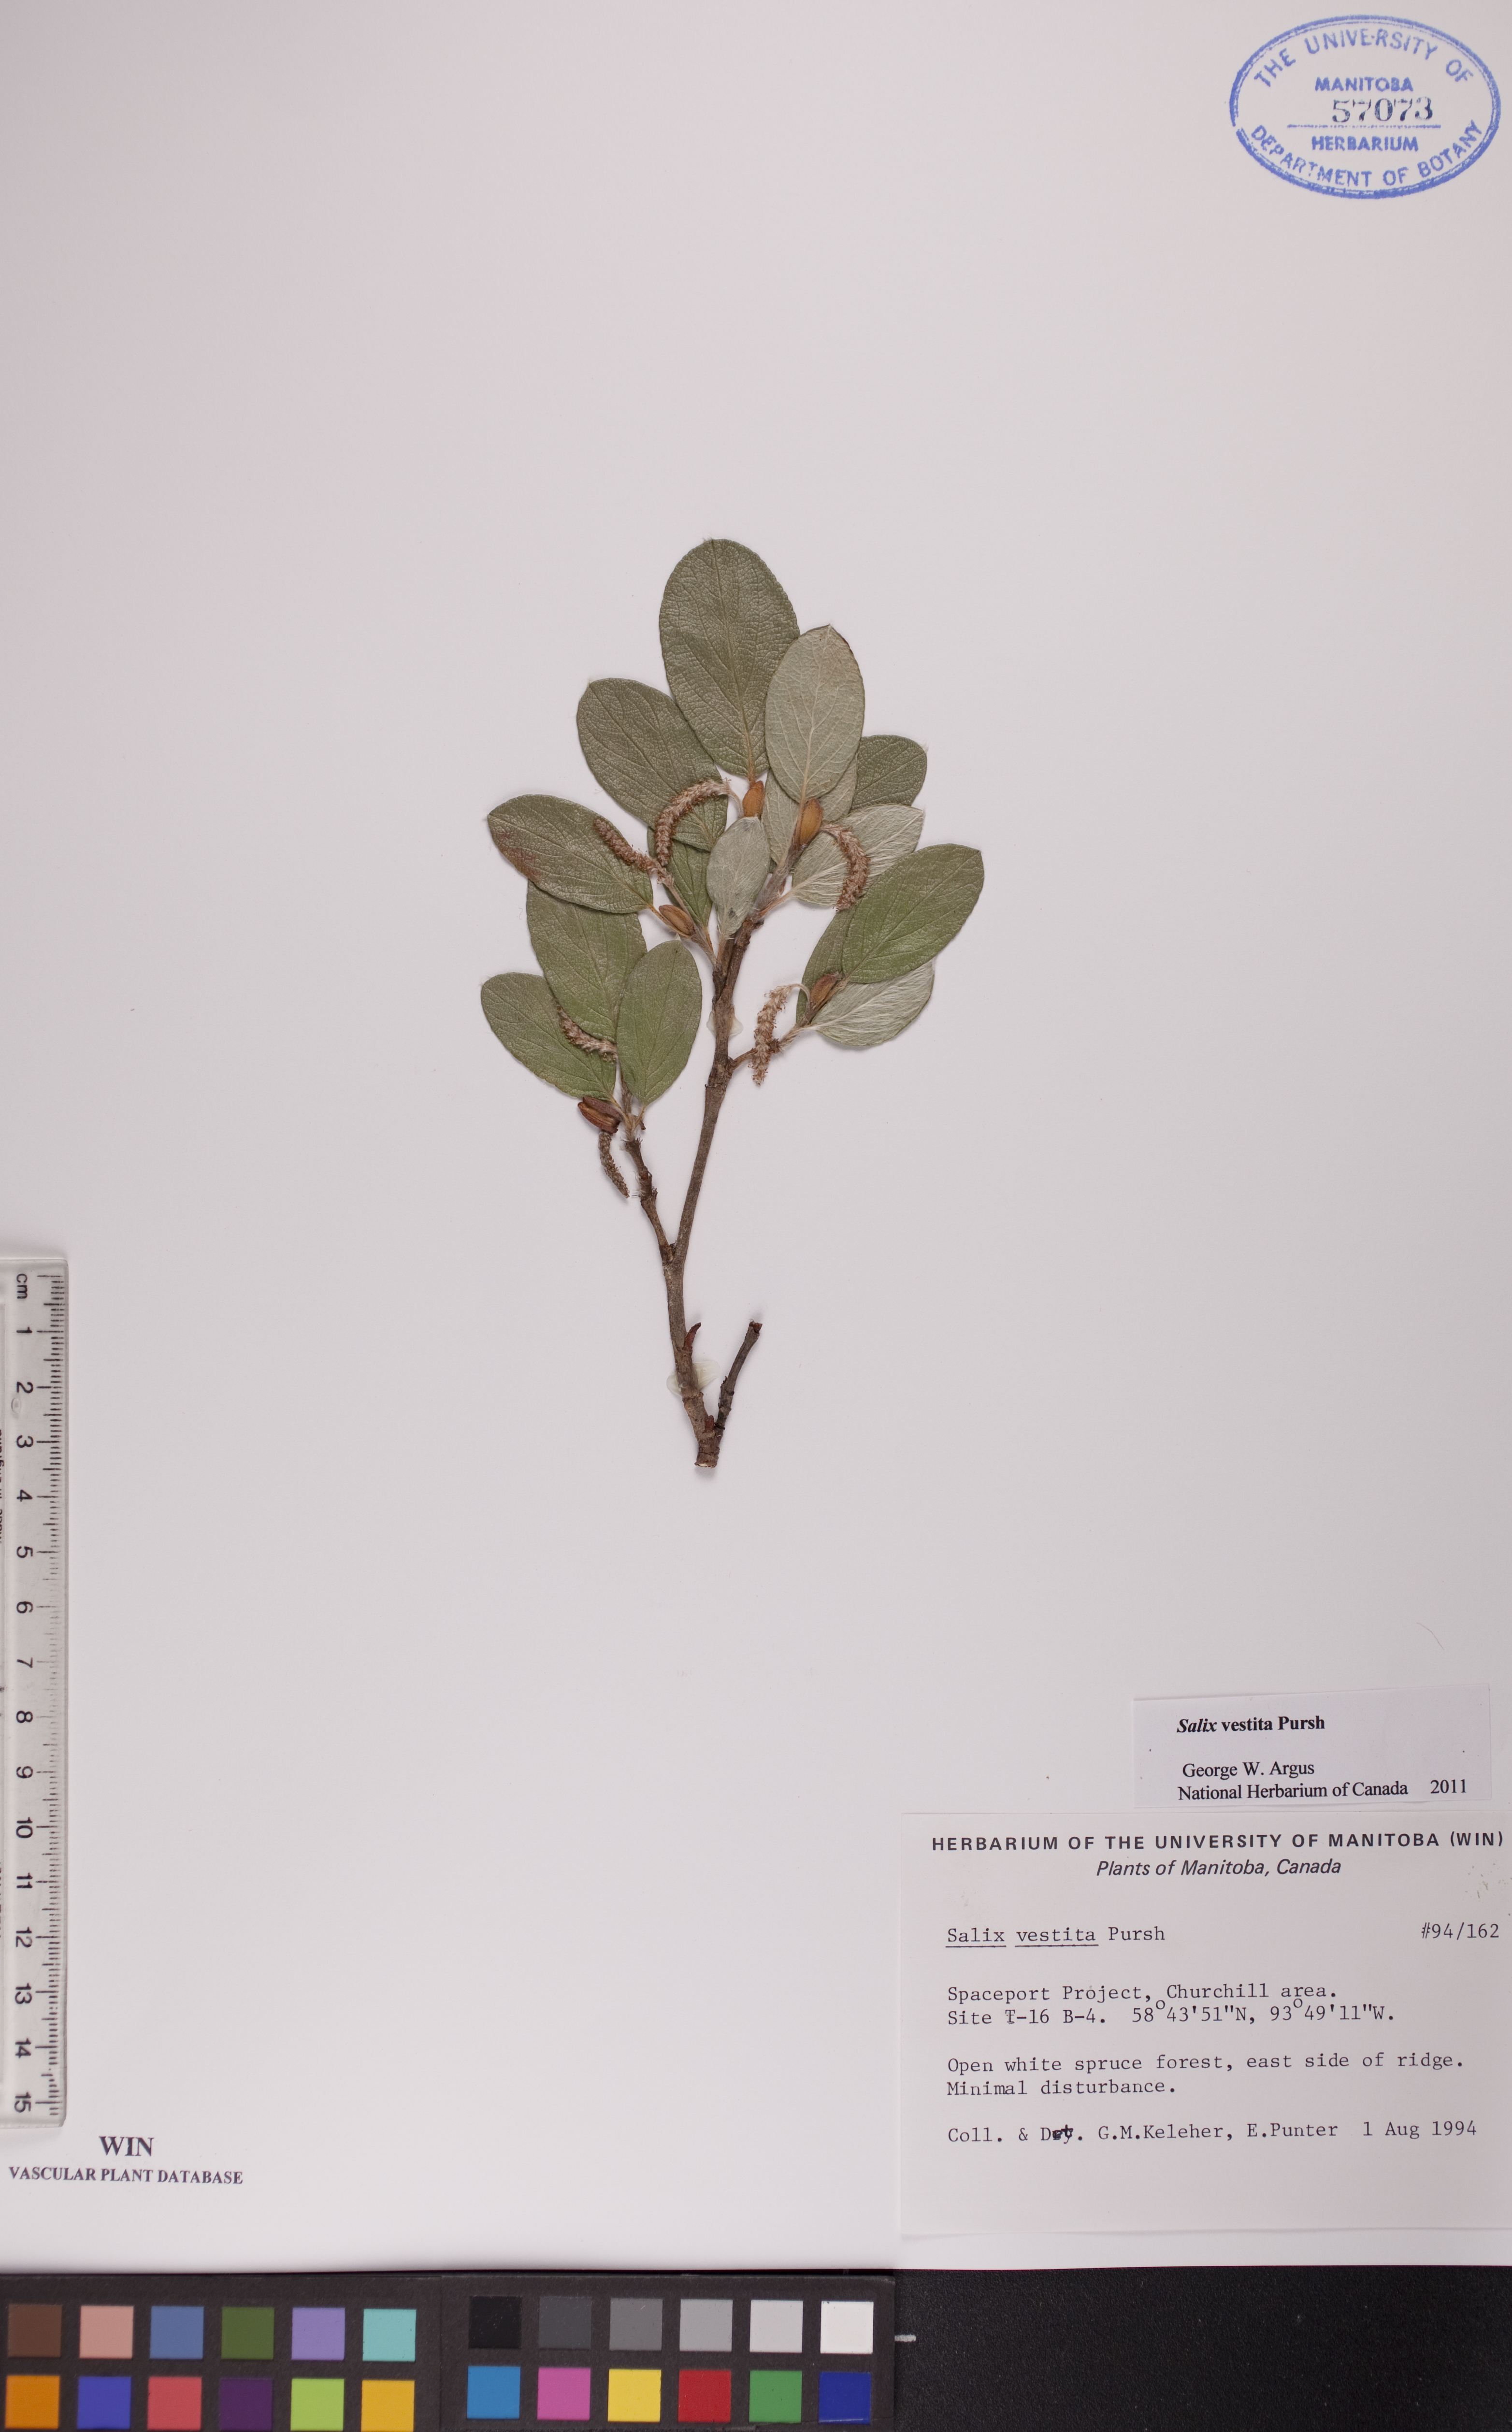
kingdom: Plantae
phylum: Tracheophyta
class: Magnoliopsida
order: Malpighiales
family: Salicaceae
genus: Salix
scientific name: Salix vestita
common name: Hairy willow
